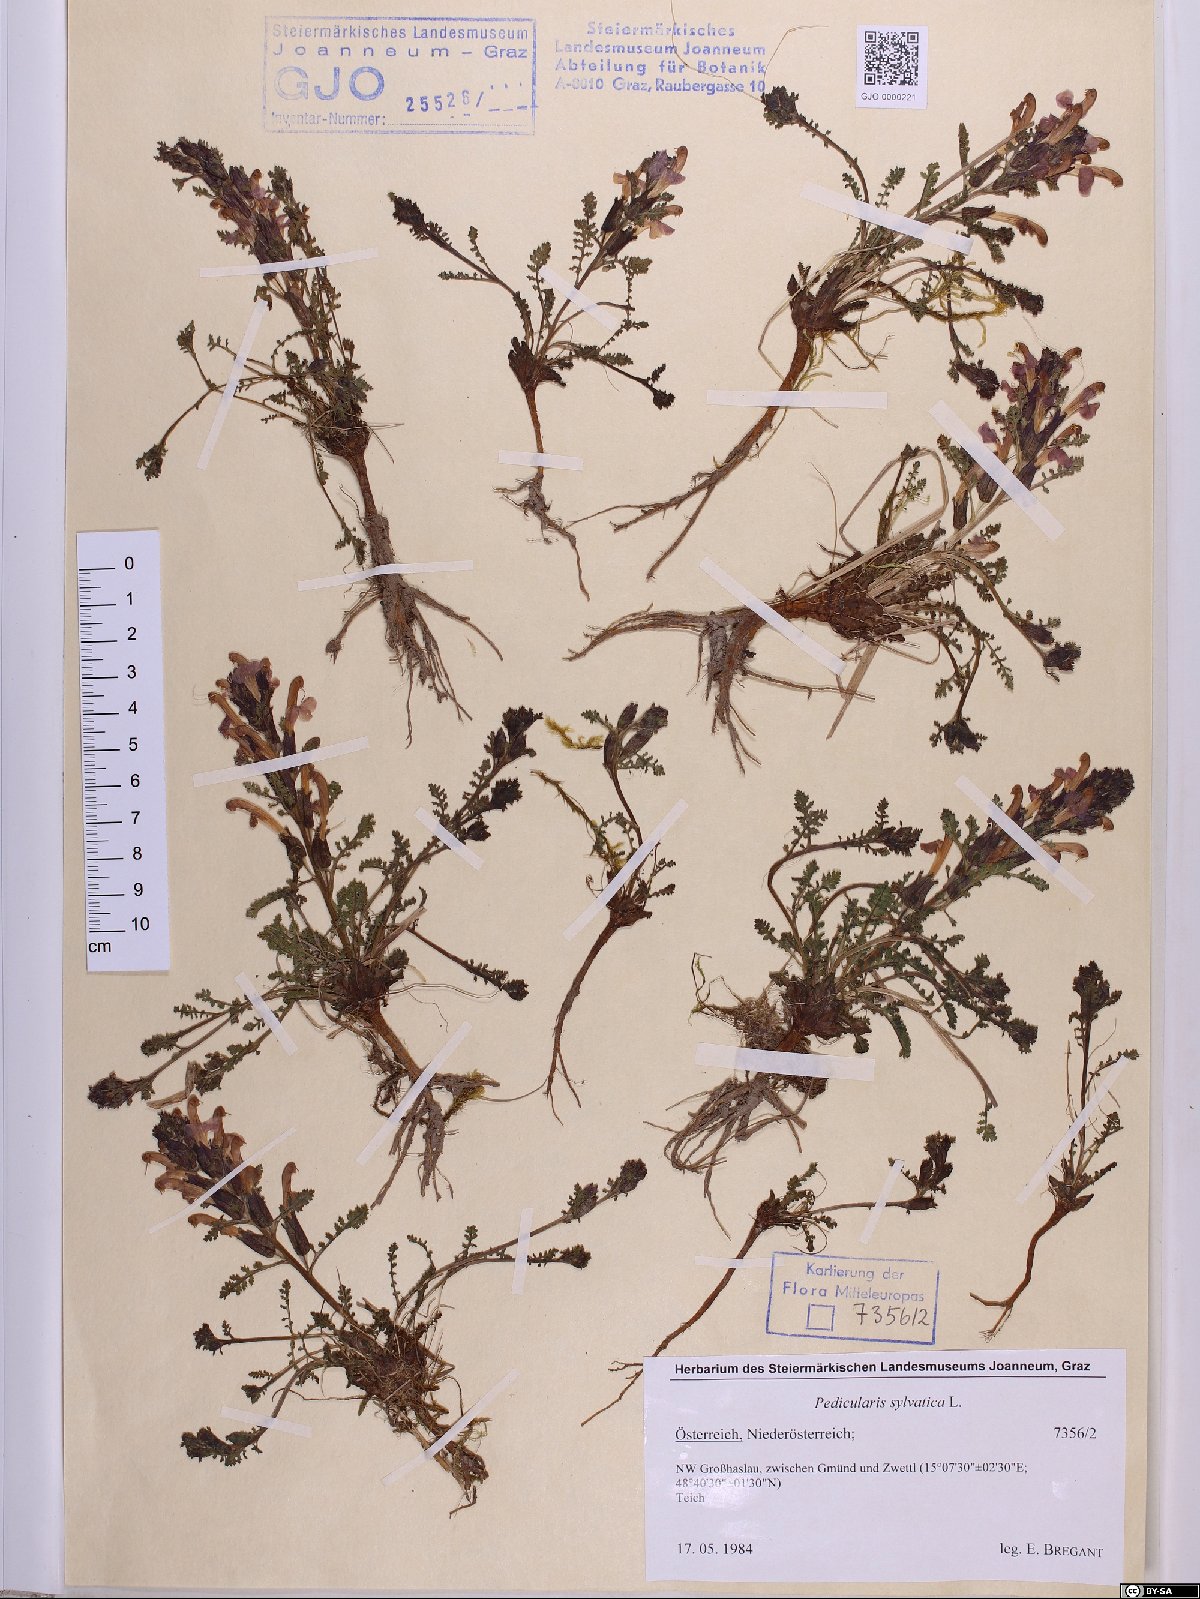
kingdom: Plantae
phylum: Tracheophyta
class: Magnoliopsida
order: Lamiales
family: Orobanchaceae
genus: Pedicularis
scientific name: Pedicularis sylvatica
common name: Lousewort
